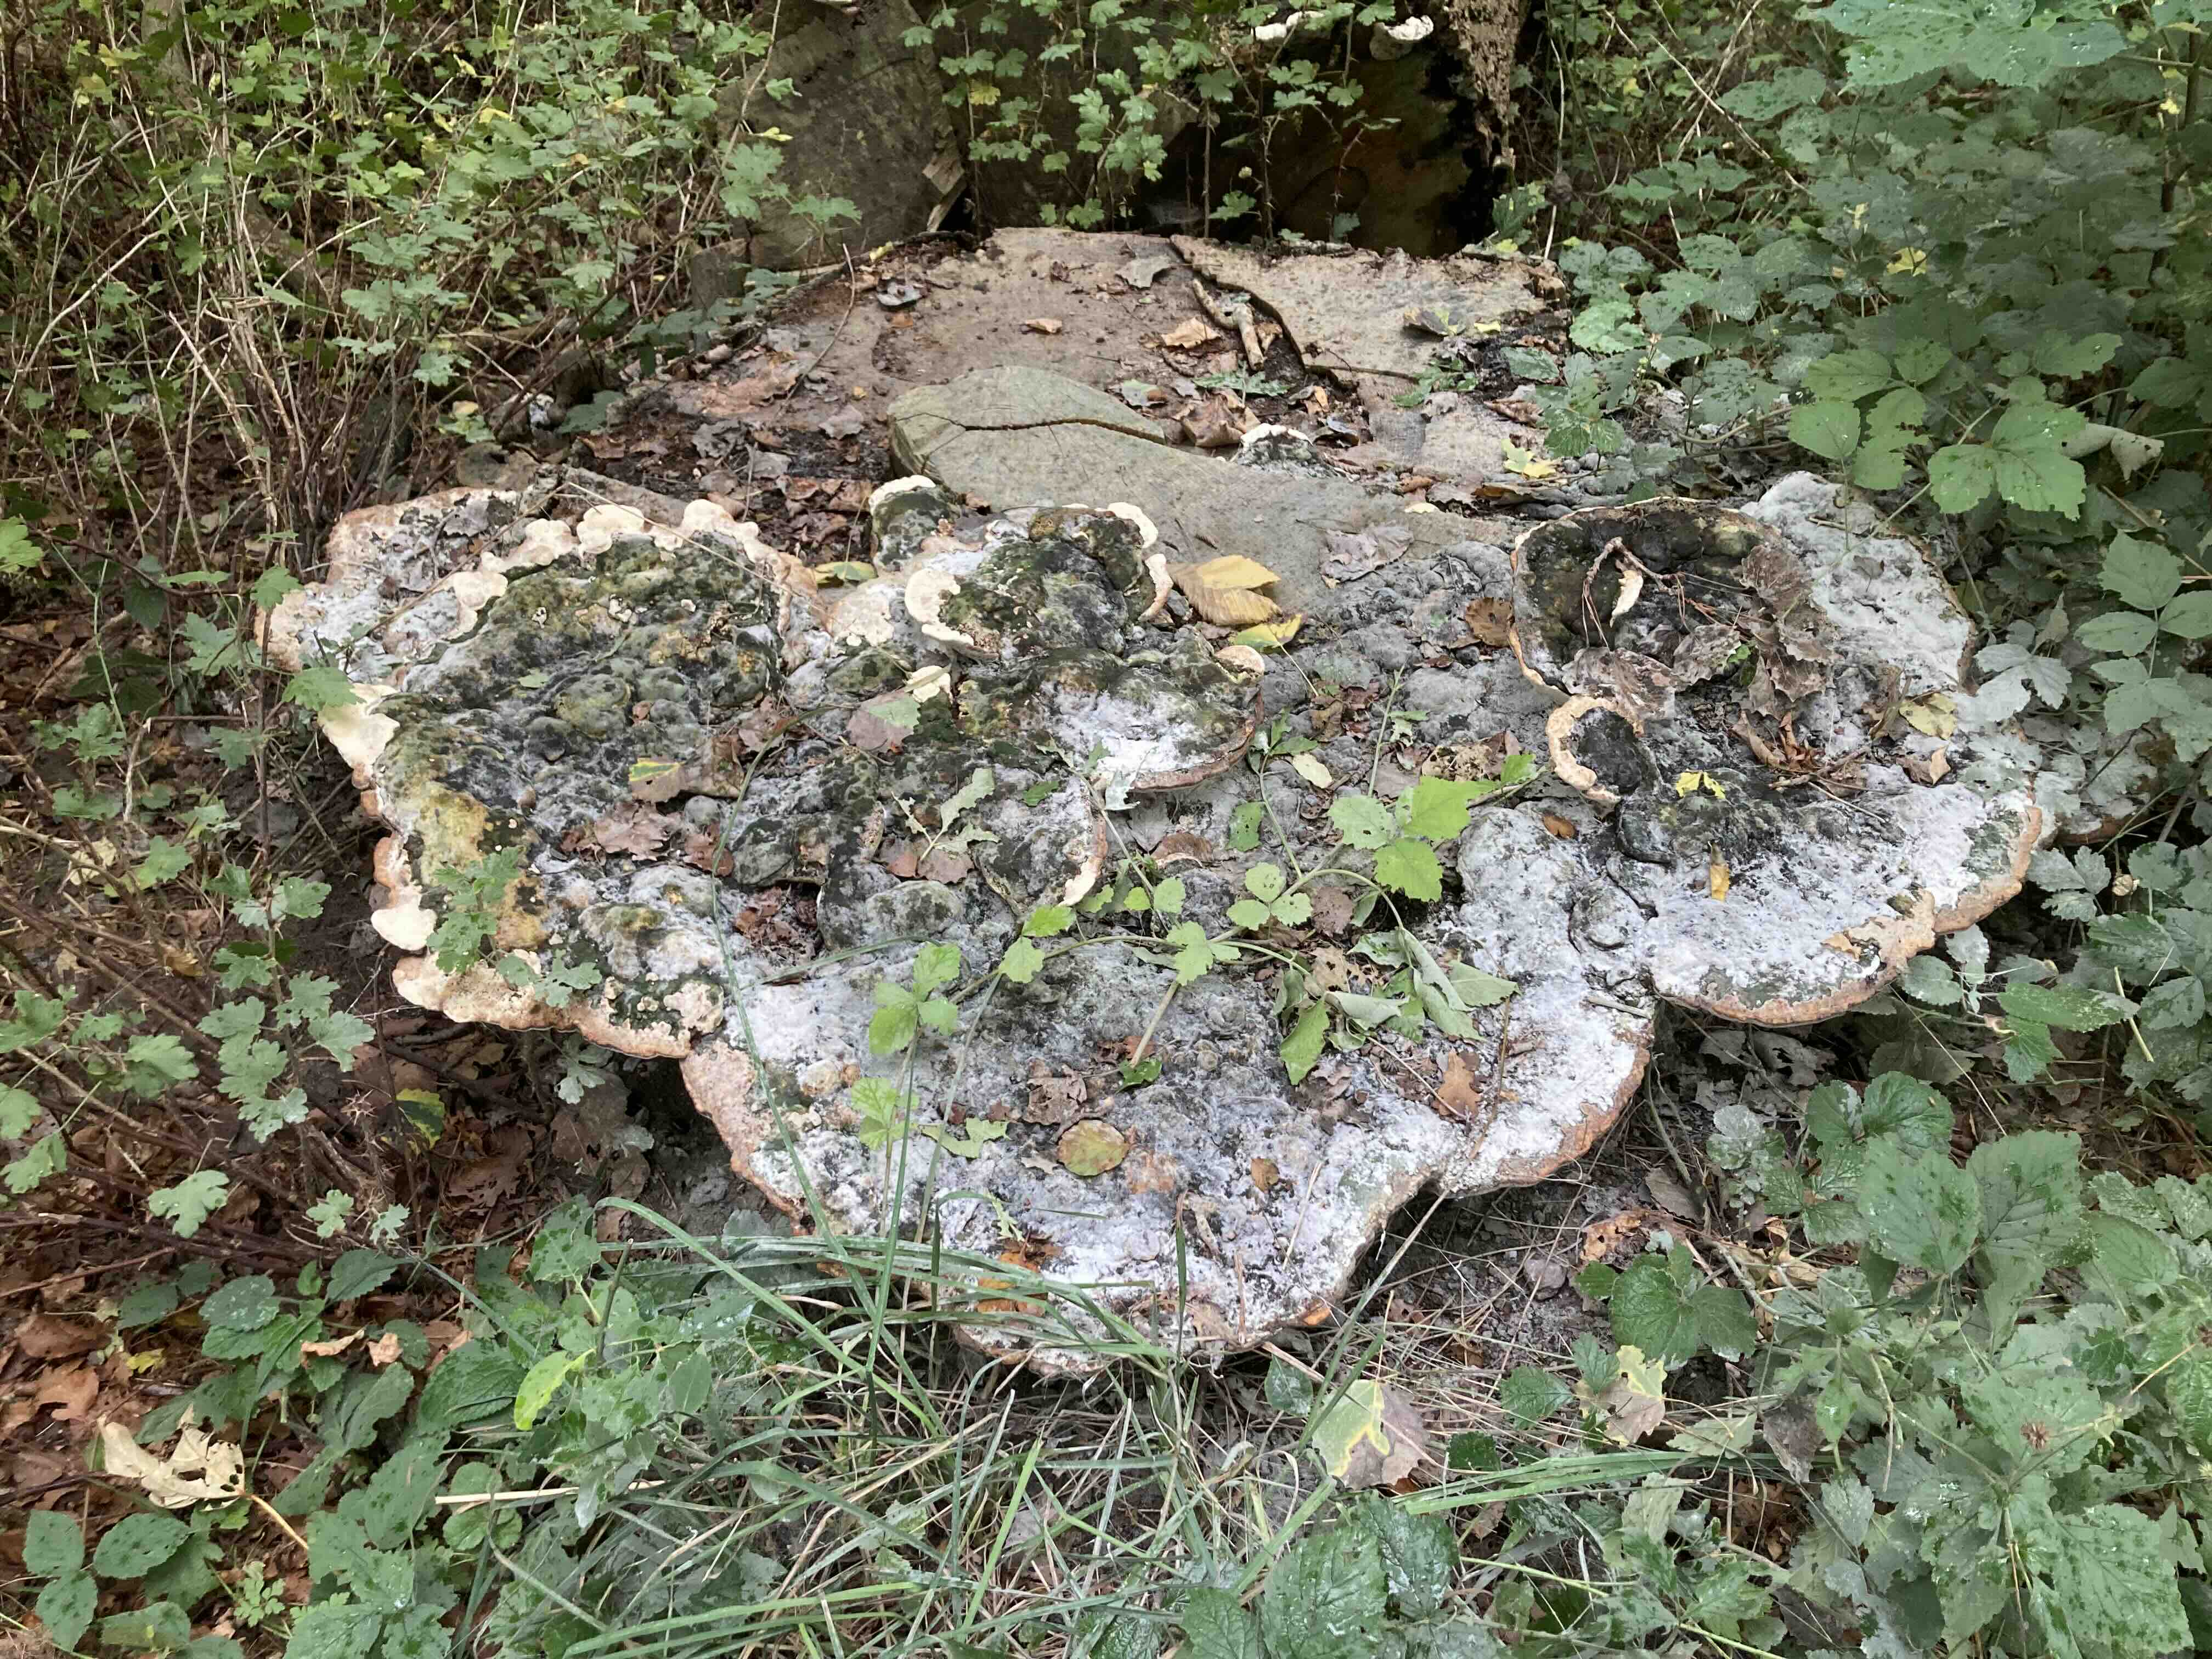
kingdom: Fungi
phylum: Basidiomycota
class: Agaricomycetes
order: Polyporales
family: Polyporaceae
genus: Vanderbylia
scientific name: Vanderbylia fraxinea
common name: stor kanelporesvamp
